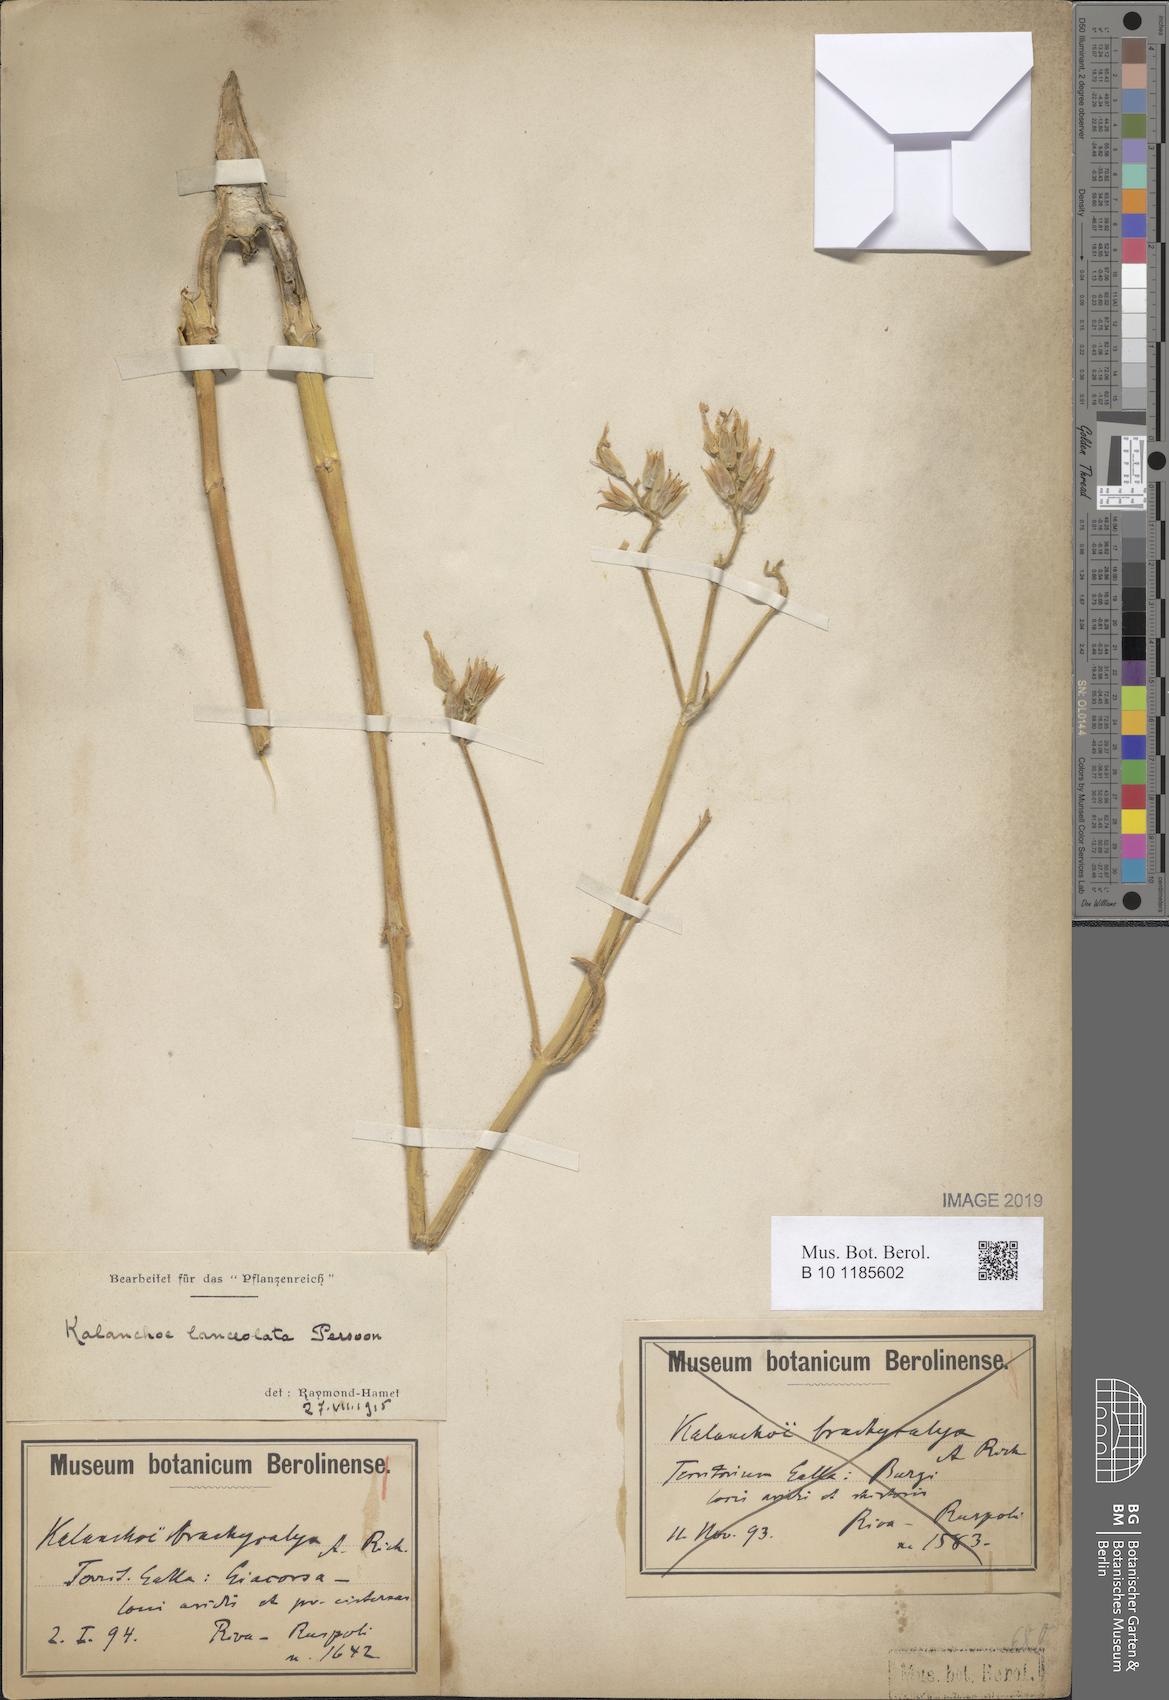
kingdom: Plantae
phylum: Tracheophyta
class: Magnoliopsida
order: Saxifragales
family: Crassulaceae
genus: Kalanchoe
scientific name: Kalanchoe lanceolata
